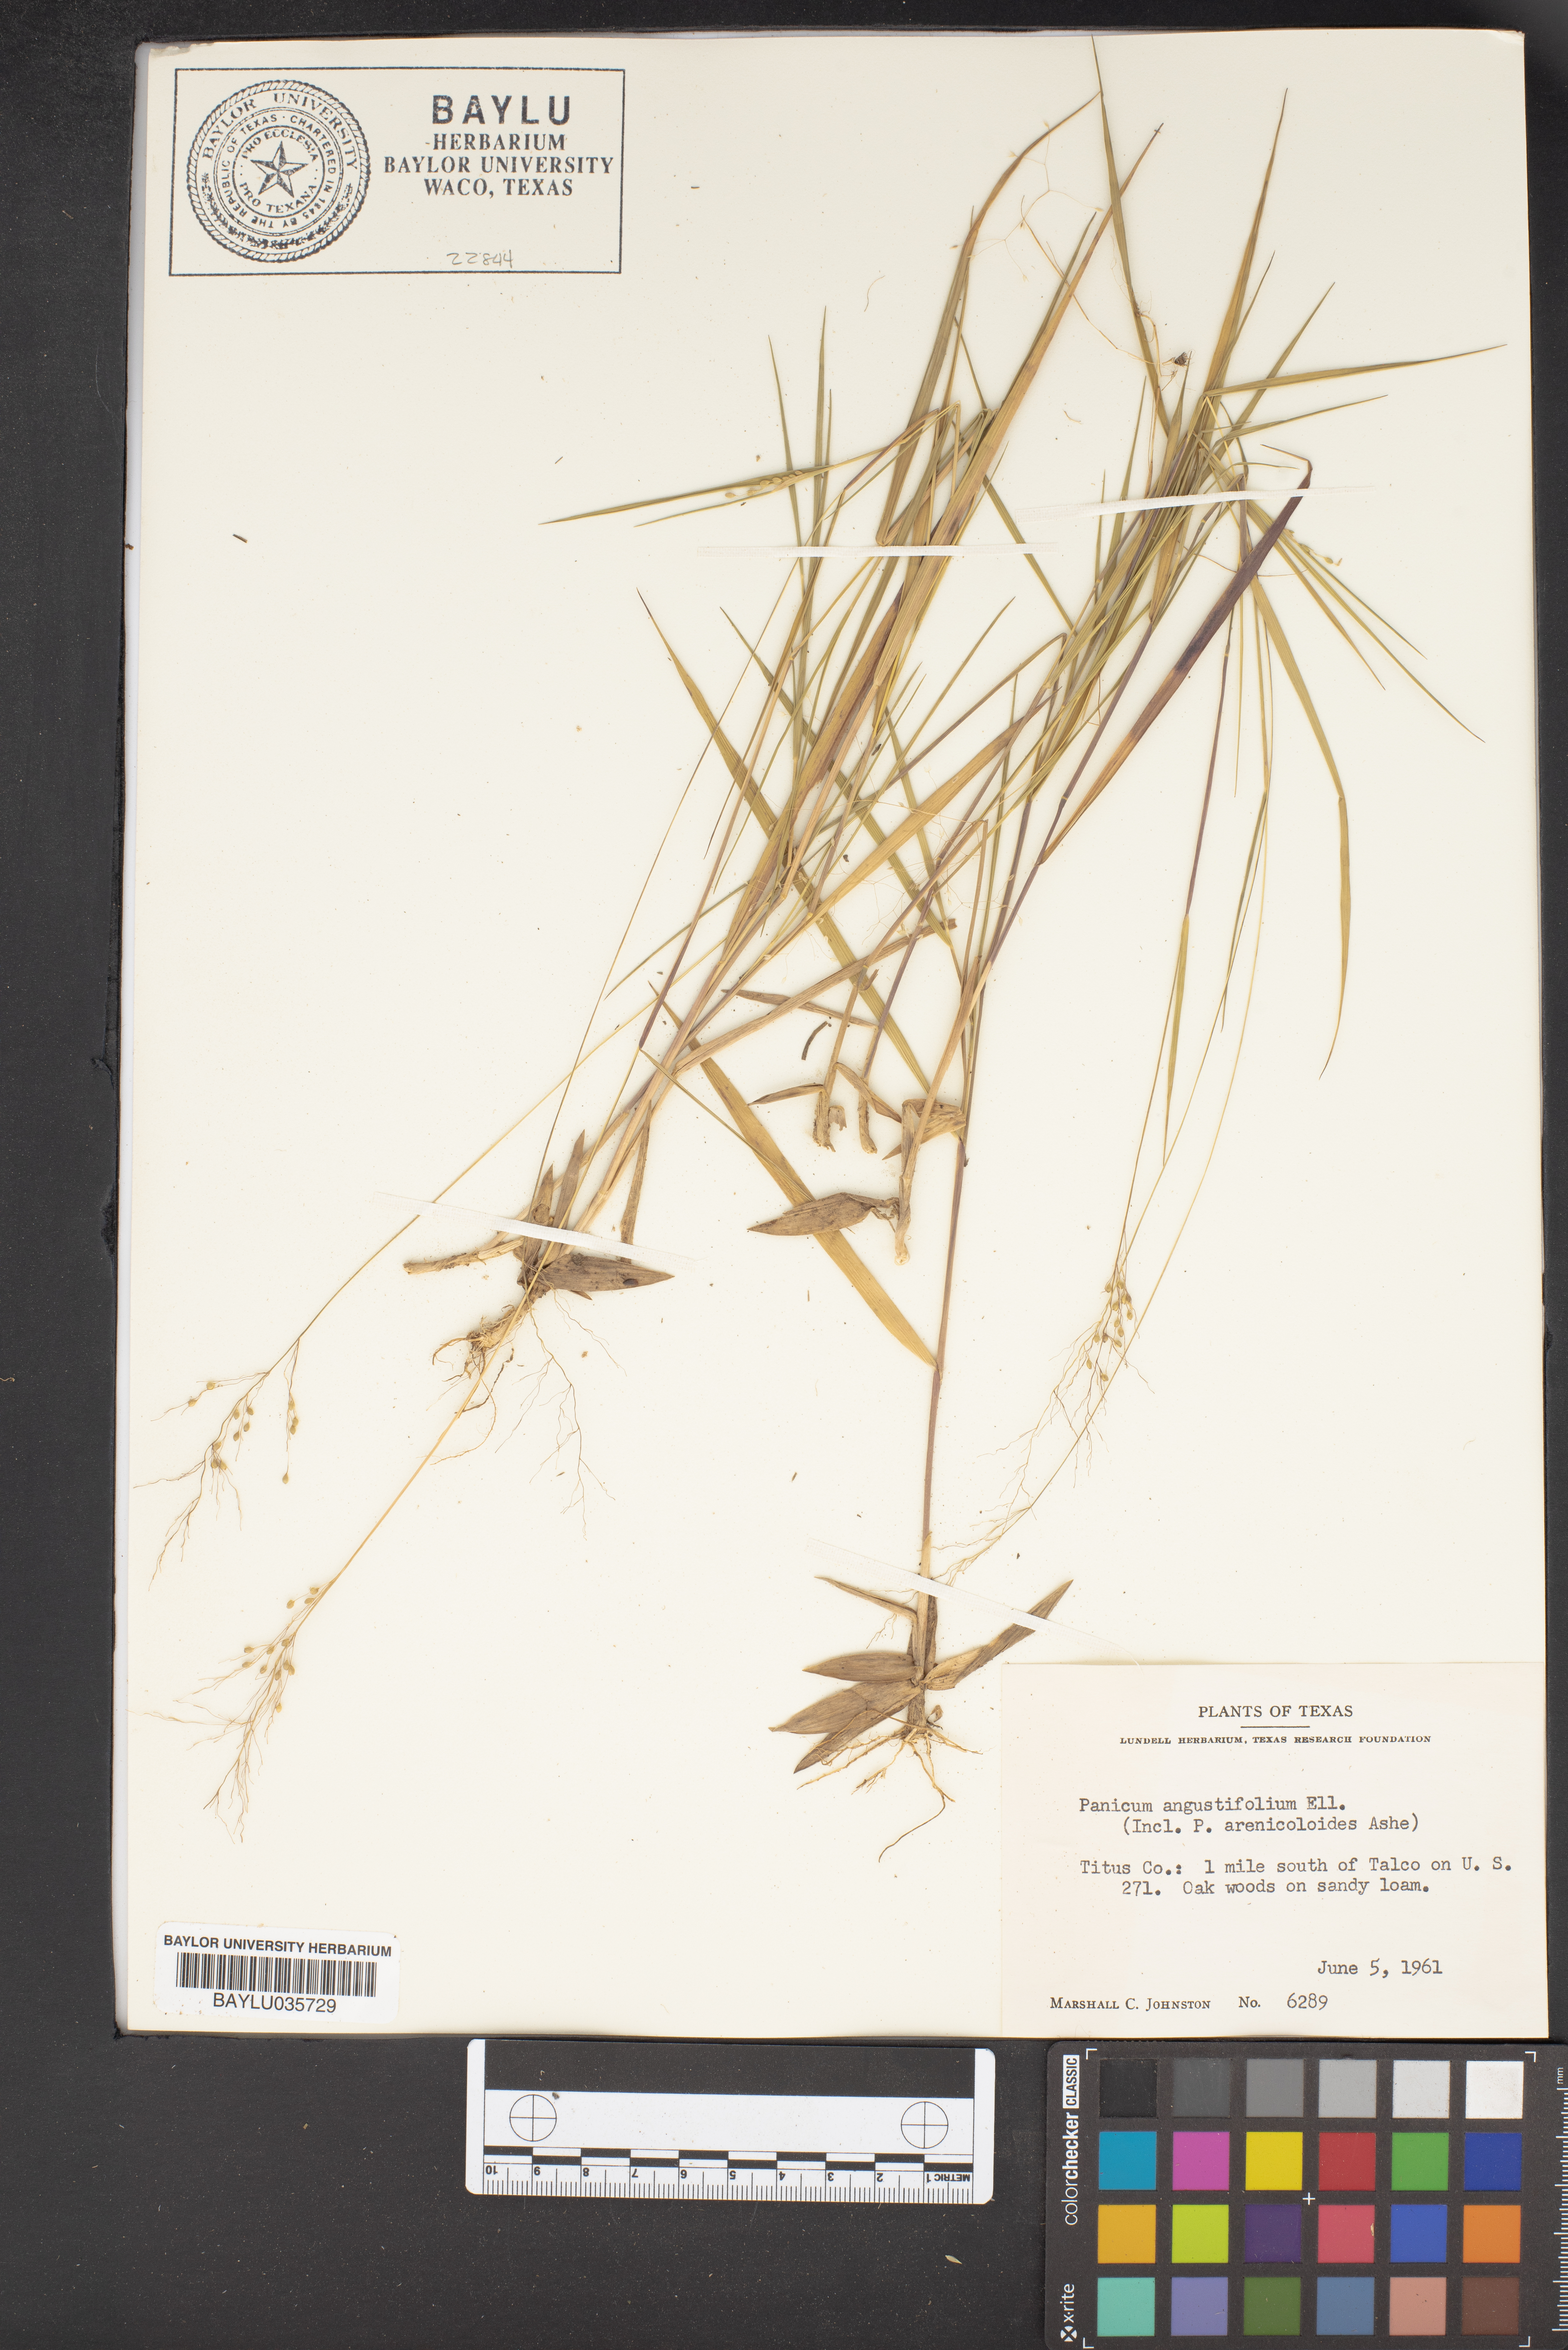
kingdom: Plantae
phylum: Tracheophyta
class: Liliopsida
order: Poales
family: Poaceae
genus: Dichanthelium
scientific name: Dichanthelium dichotomum
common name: Cypress panicgrass
